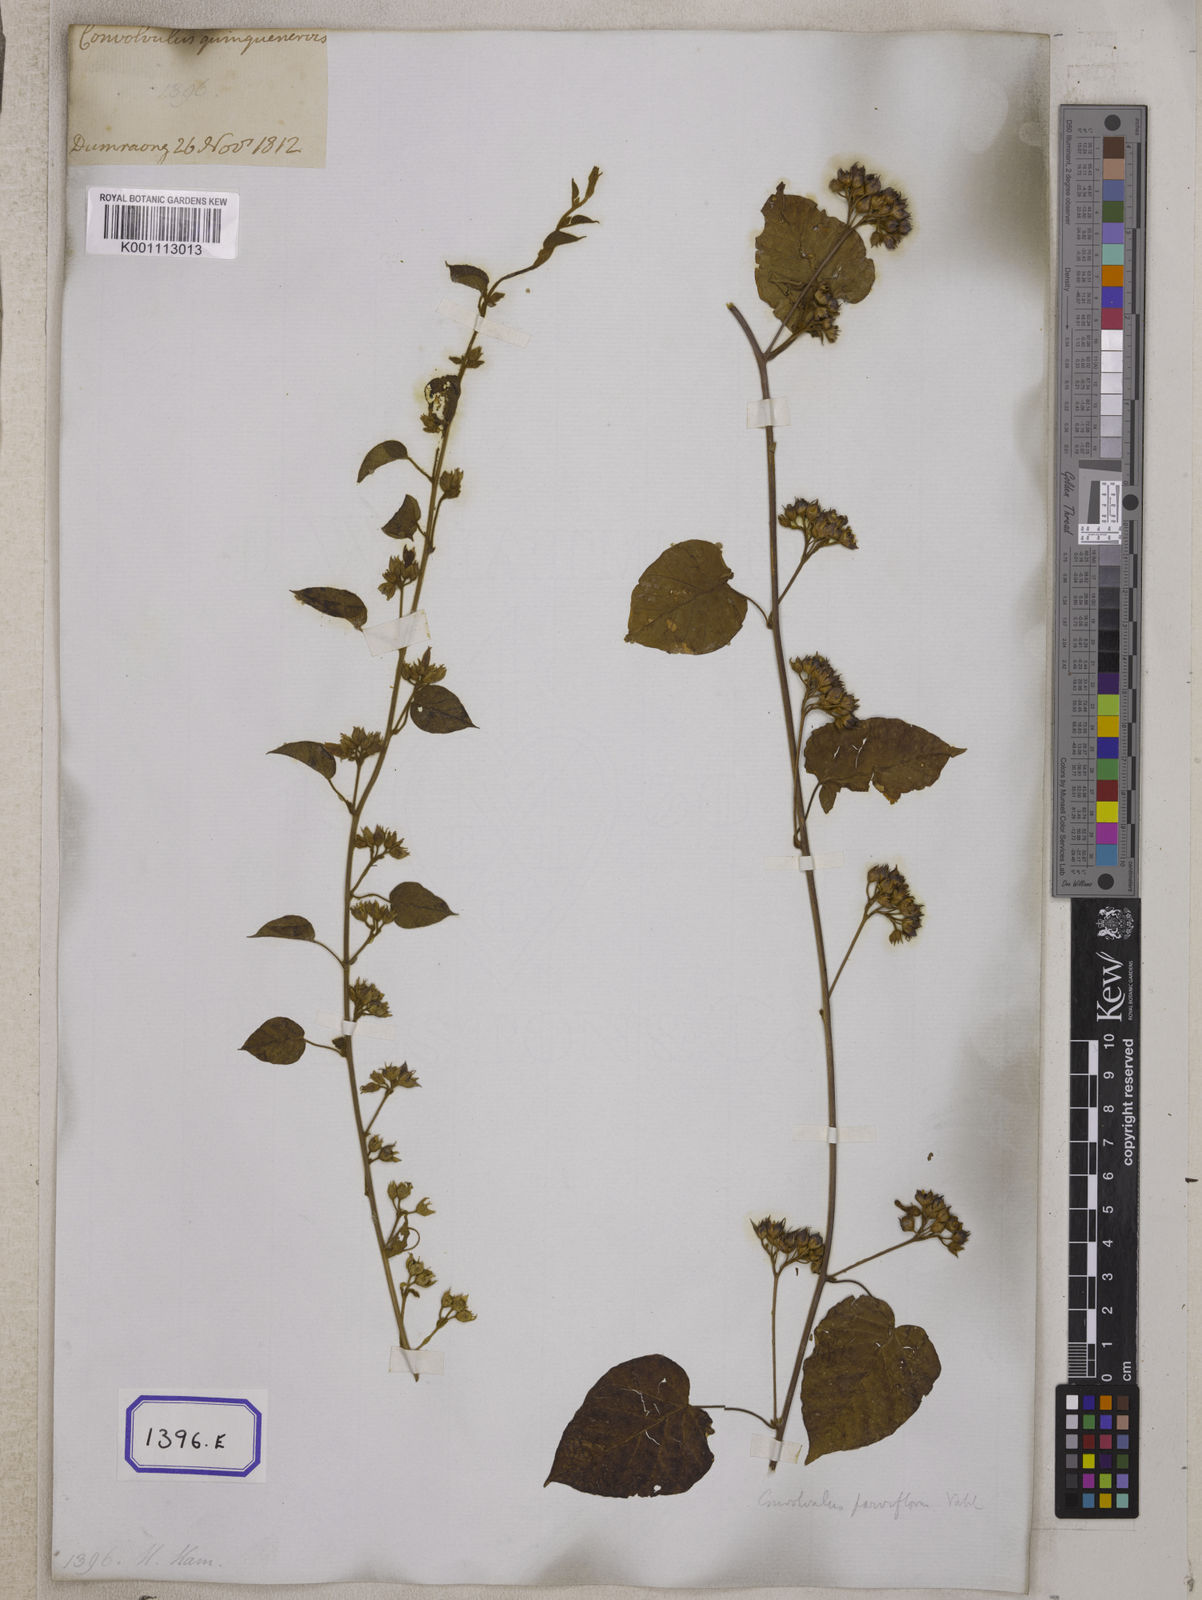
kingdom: Plantae
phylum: Tracheophyta
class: Magnoliopsida
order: Solanales
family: Convolvulaceae
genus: Convolvulus
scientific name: Convolvulus
